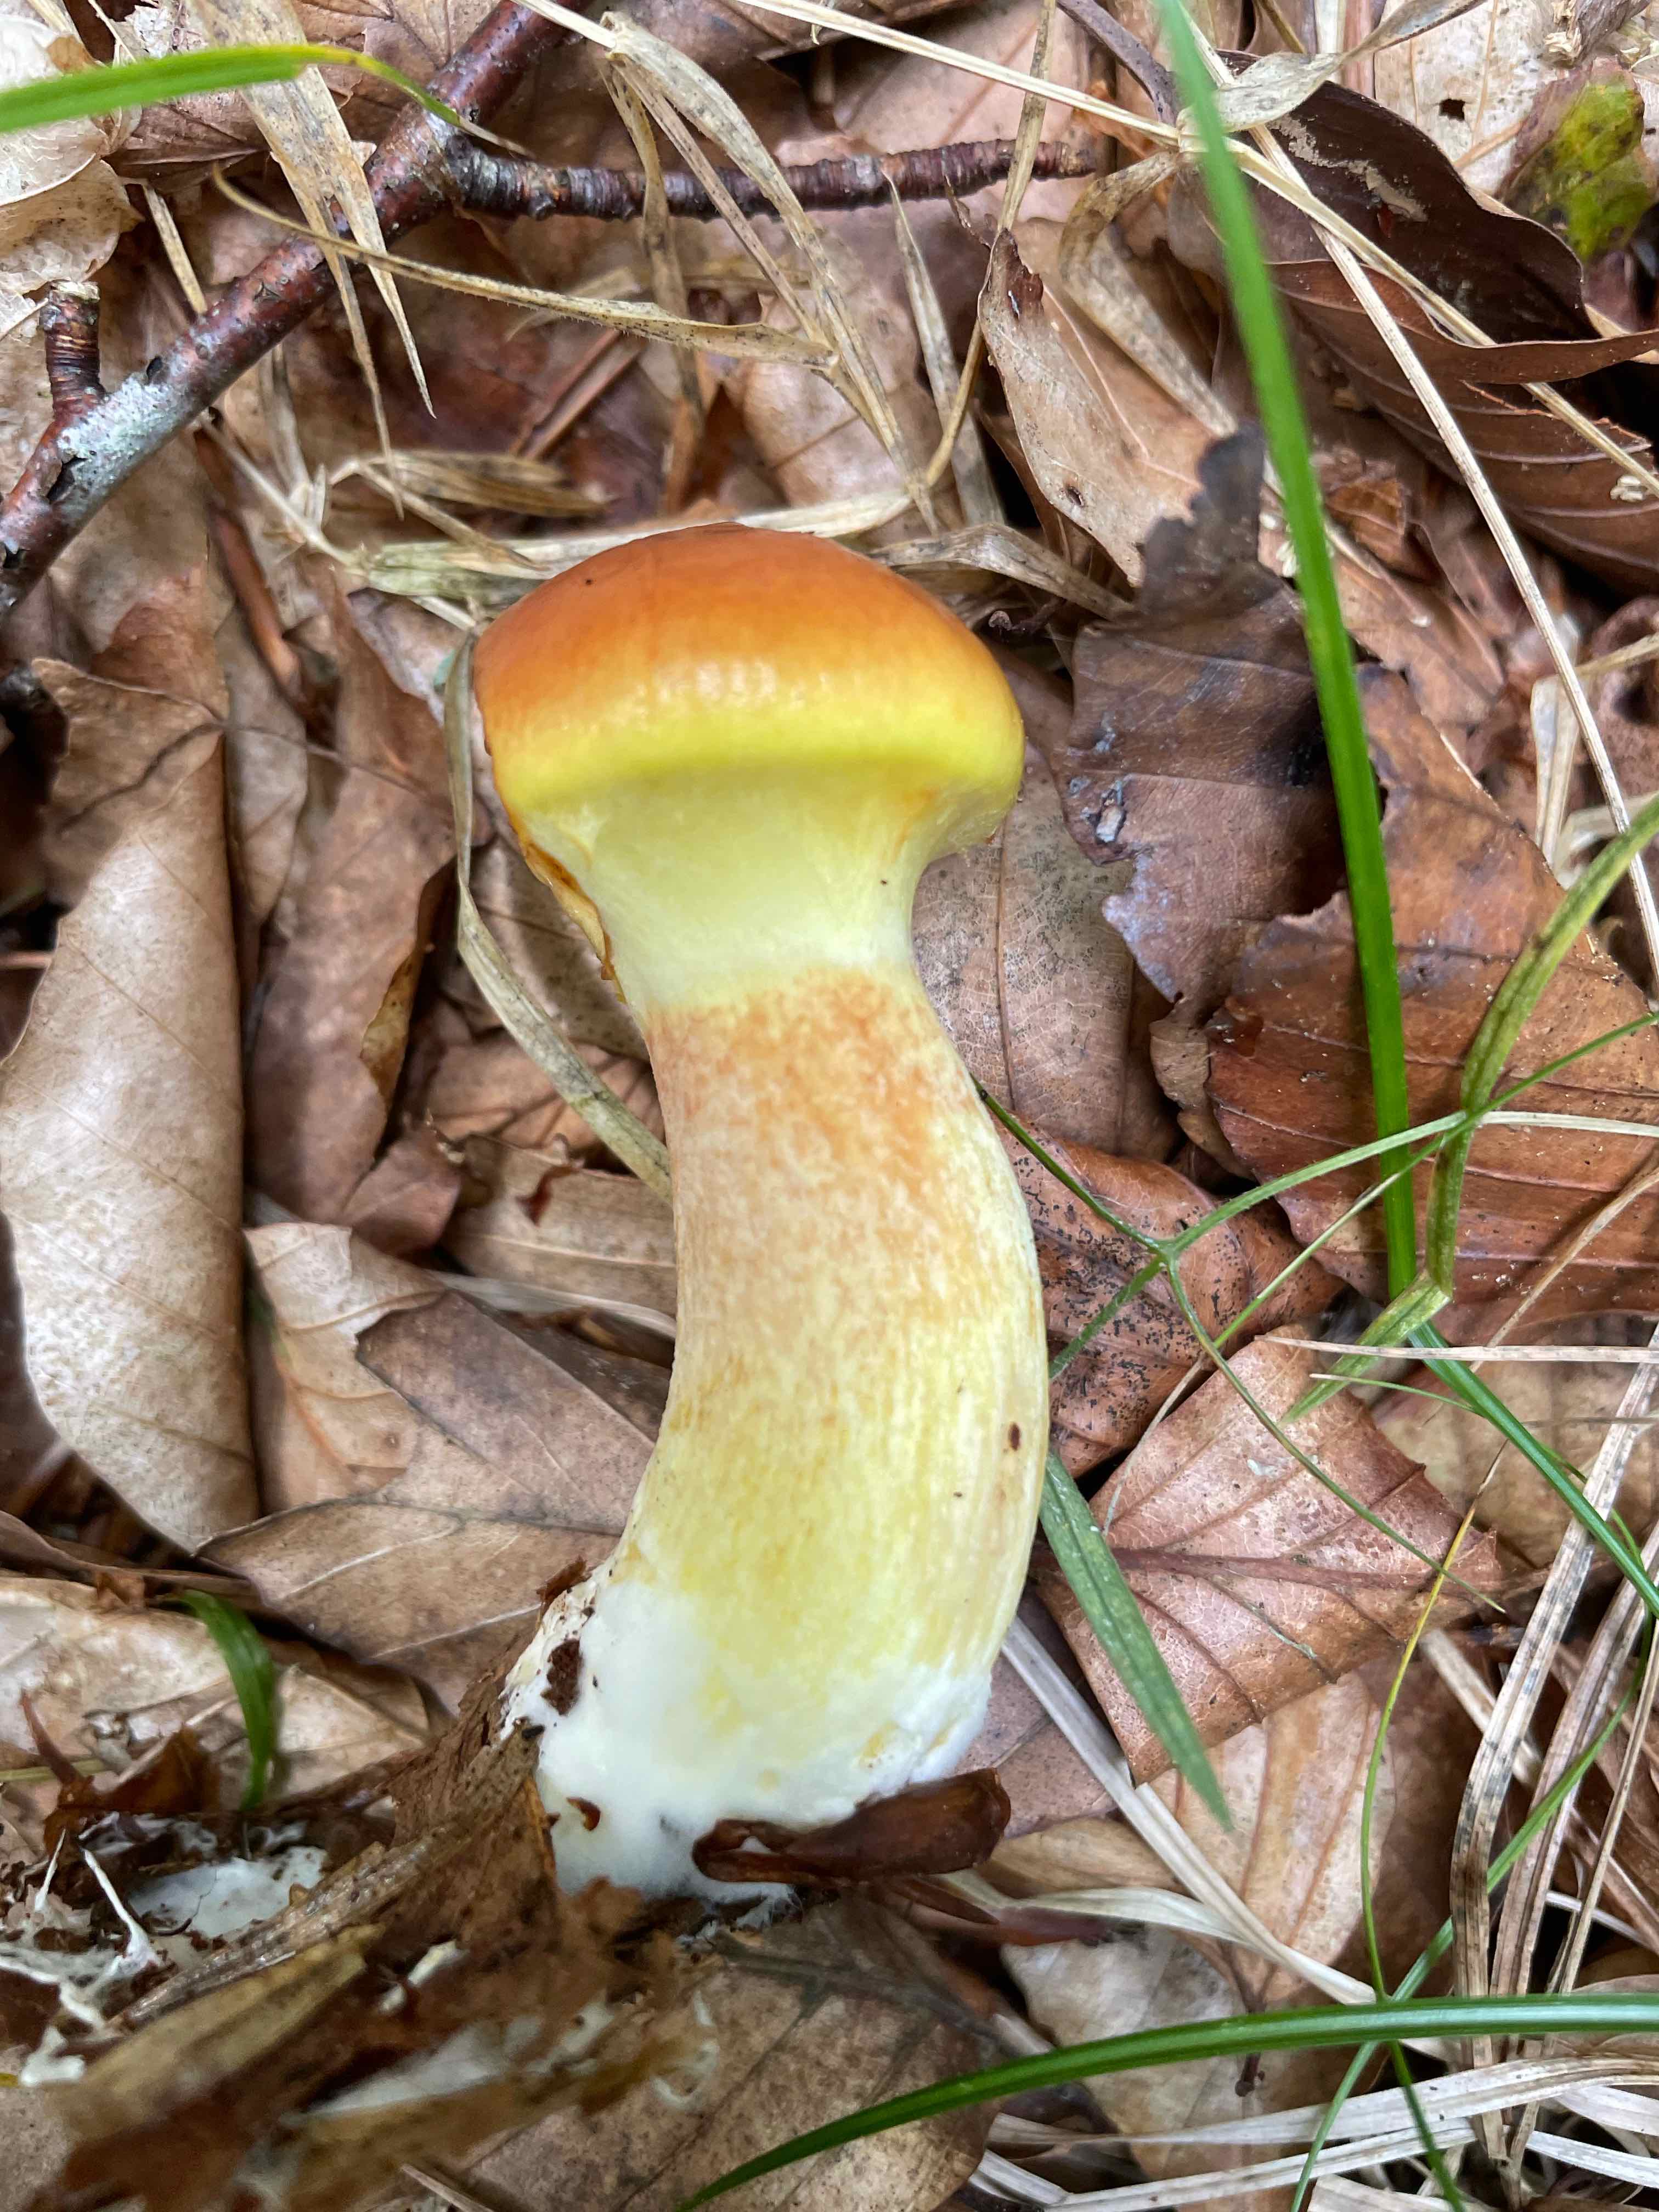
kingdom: Fungi
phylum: Basidiomycota
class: Agaricomycetes
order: Boletales
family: Suillaceae
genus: Suillus
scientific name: Suillus grevillei
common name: lærke-slimrørhat
